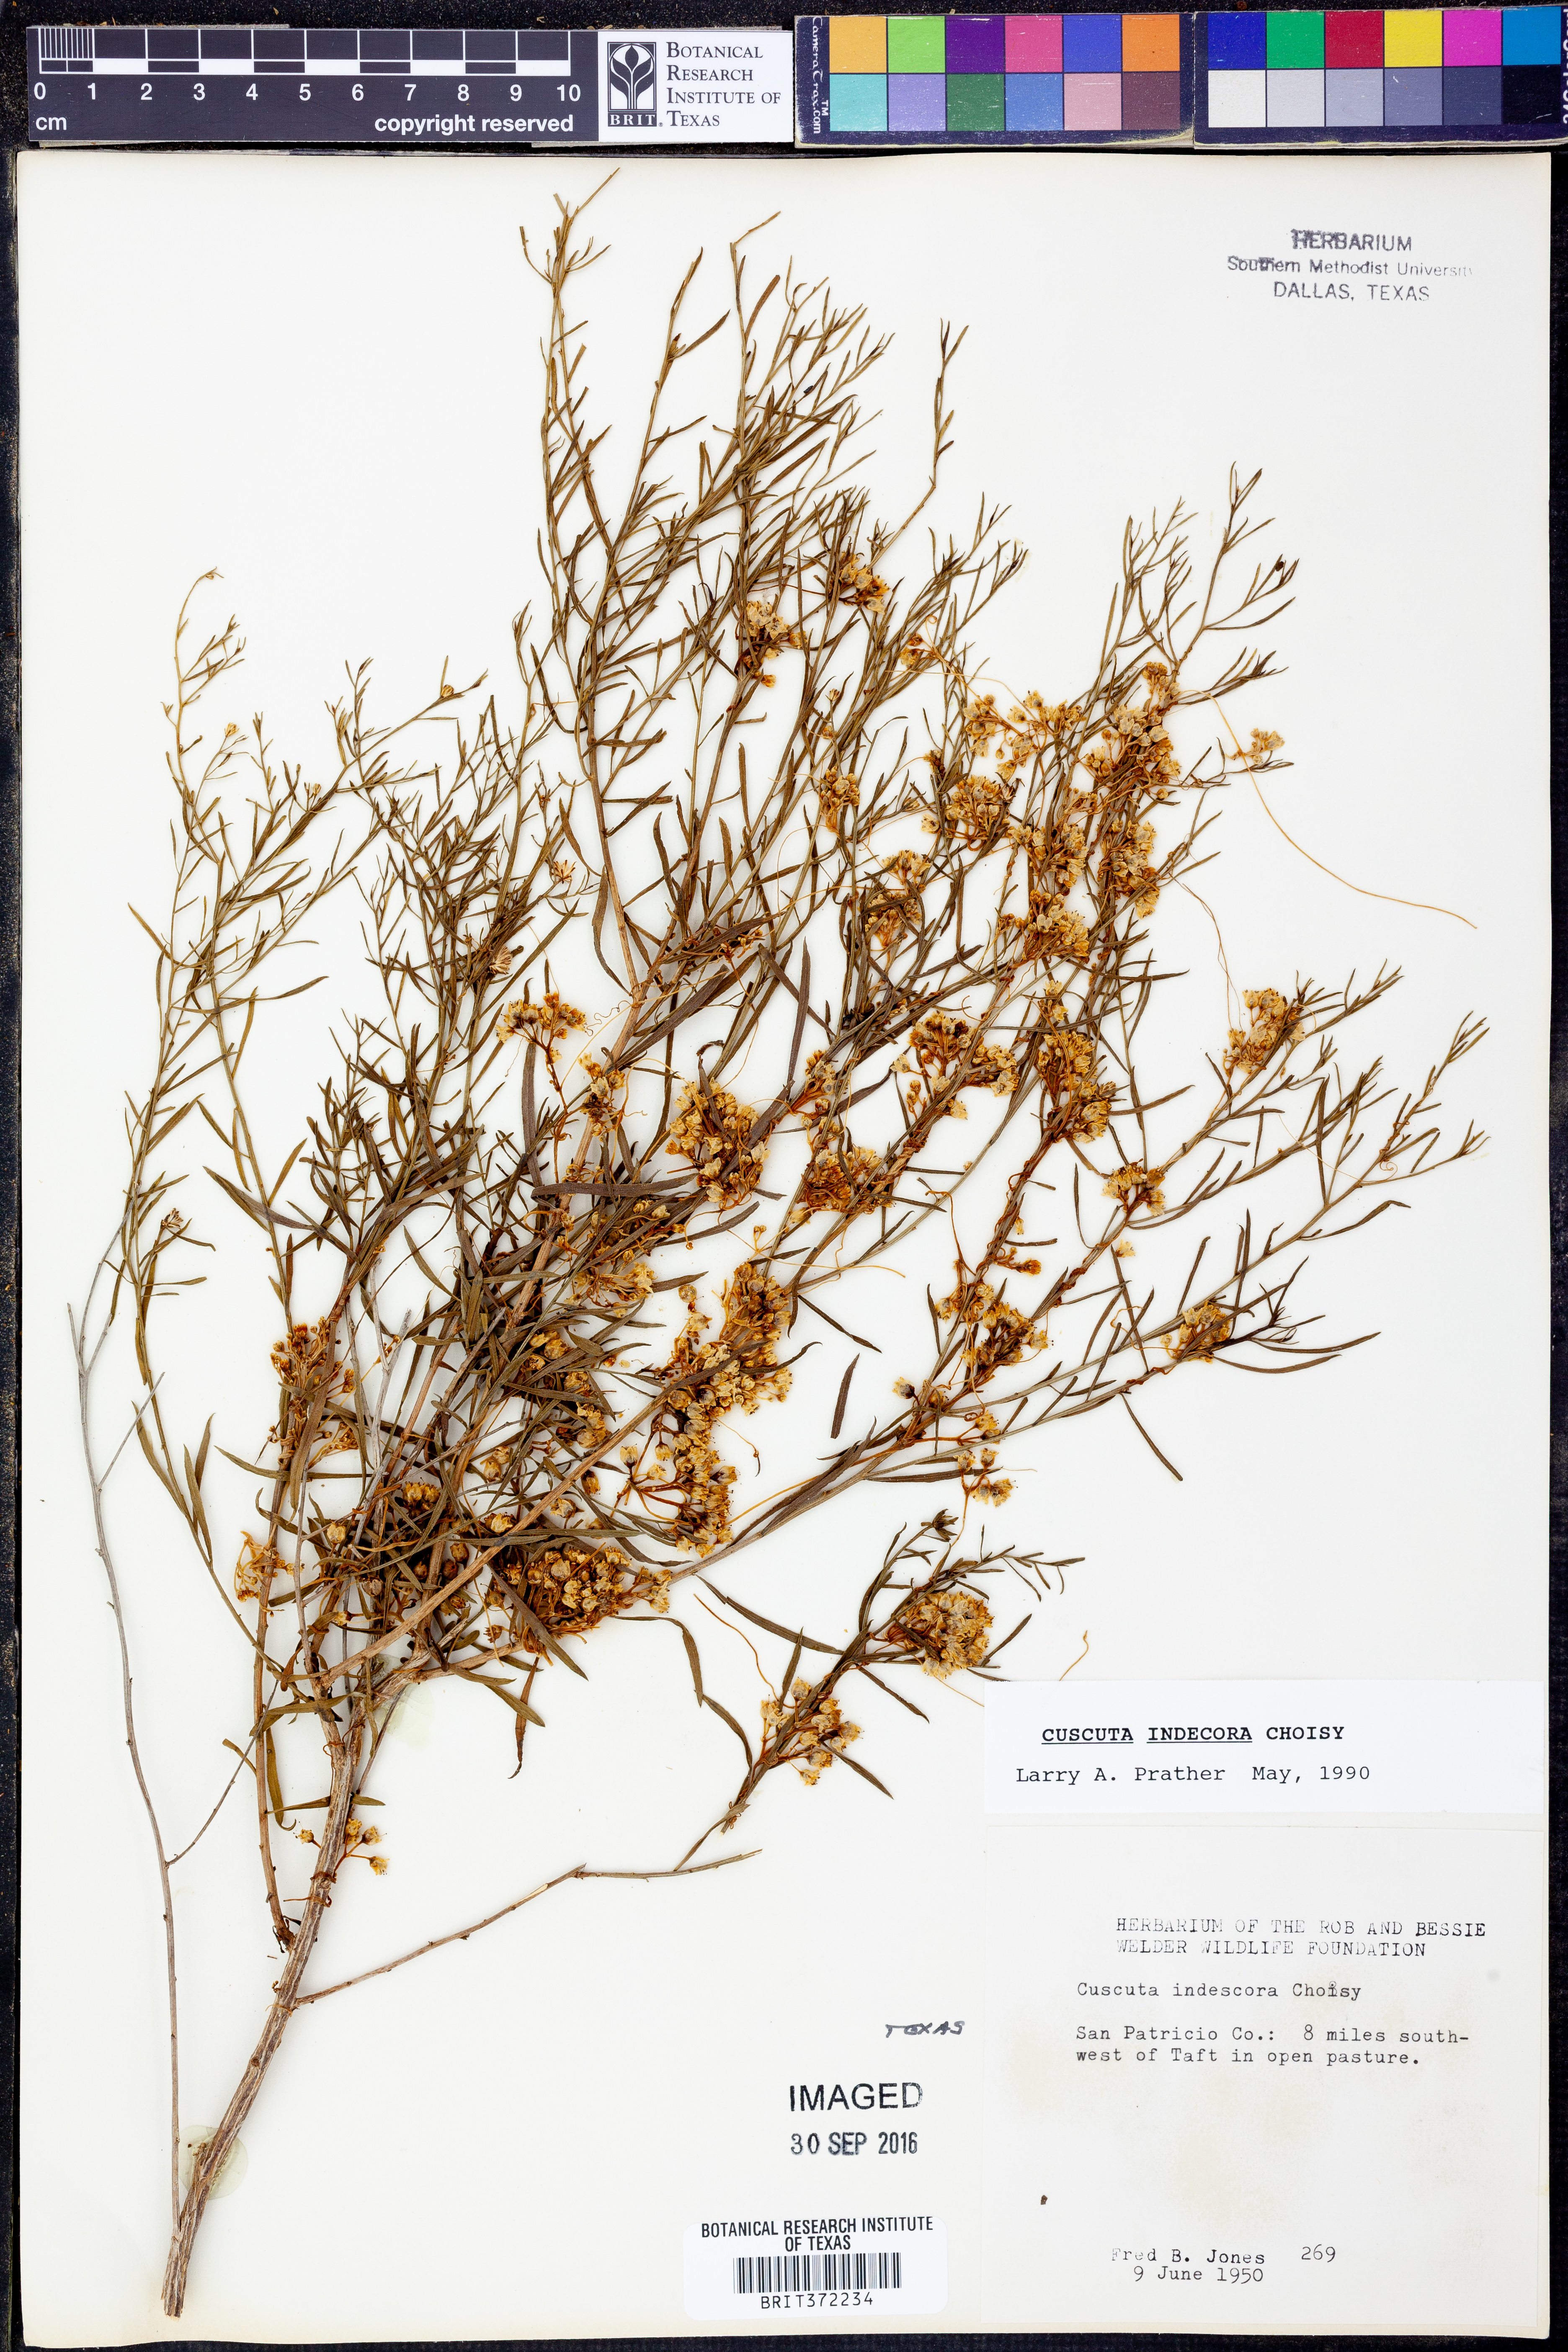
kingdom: Plantae
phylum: Tracheophyta
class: Magnoliopsida
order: Solanales
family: Convolvulaceae
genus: Cuscuta
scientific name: Cuscuta indecora
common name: Large-seed dodder
